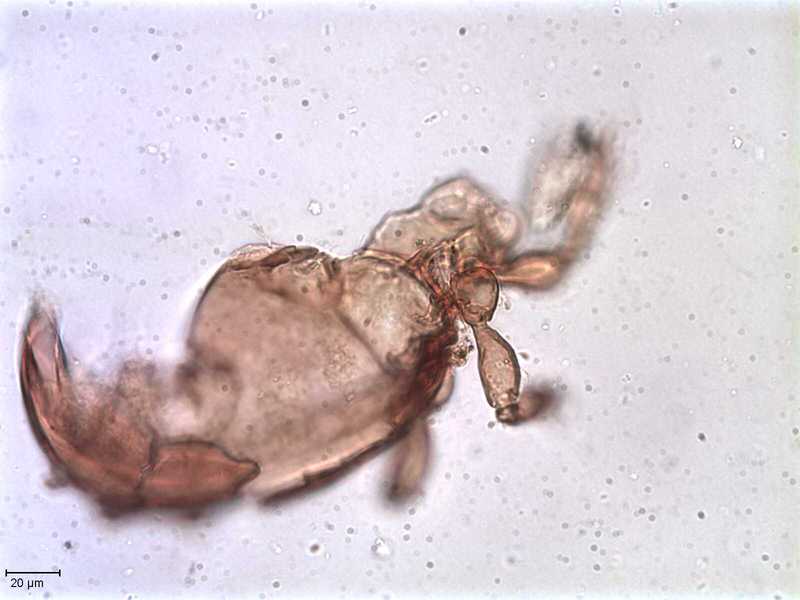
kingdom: Animalia
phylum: Arthropoda
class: Arachnida
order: Sarcoptiformes
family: Oppiidae
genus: Oppiella
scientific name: Oppiella
